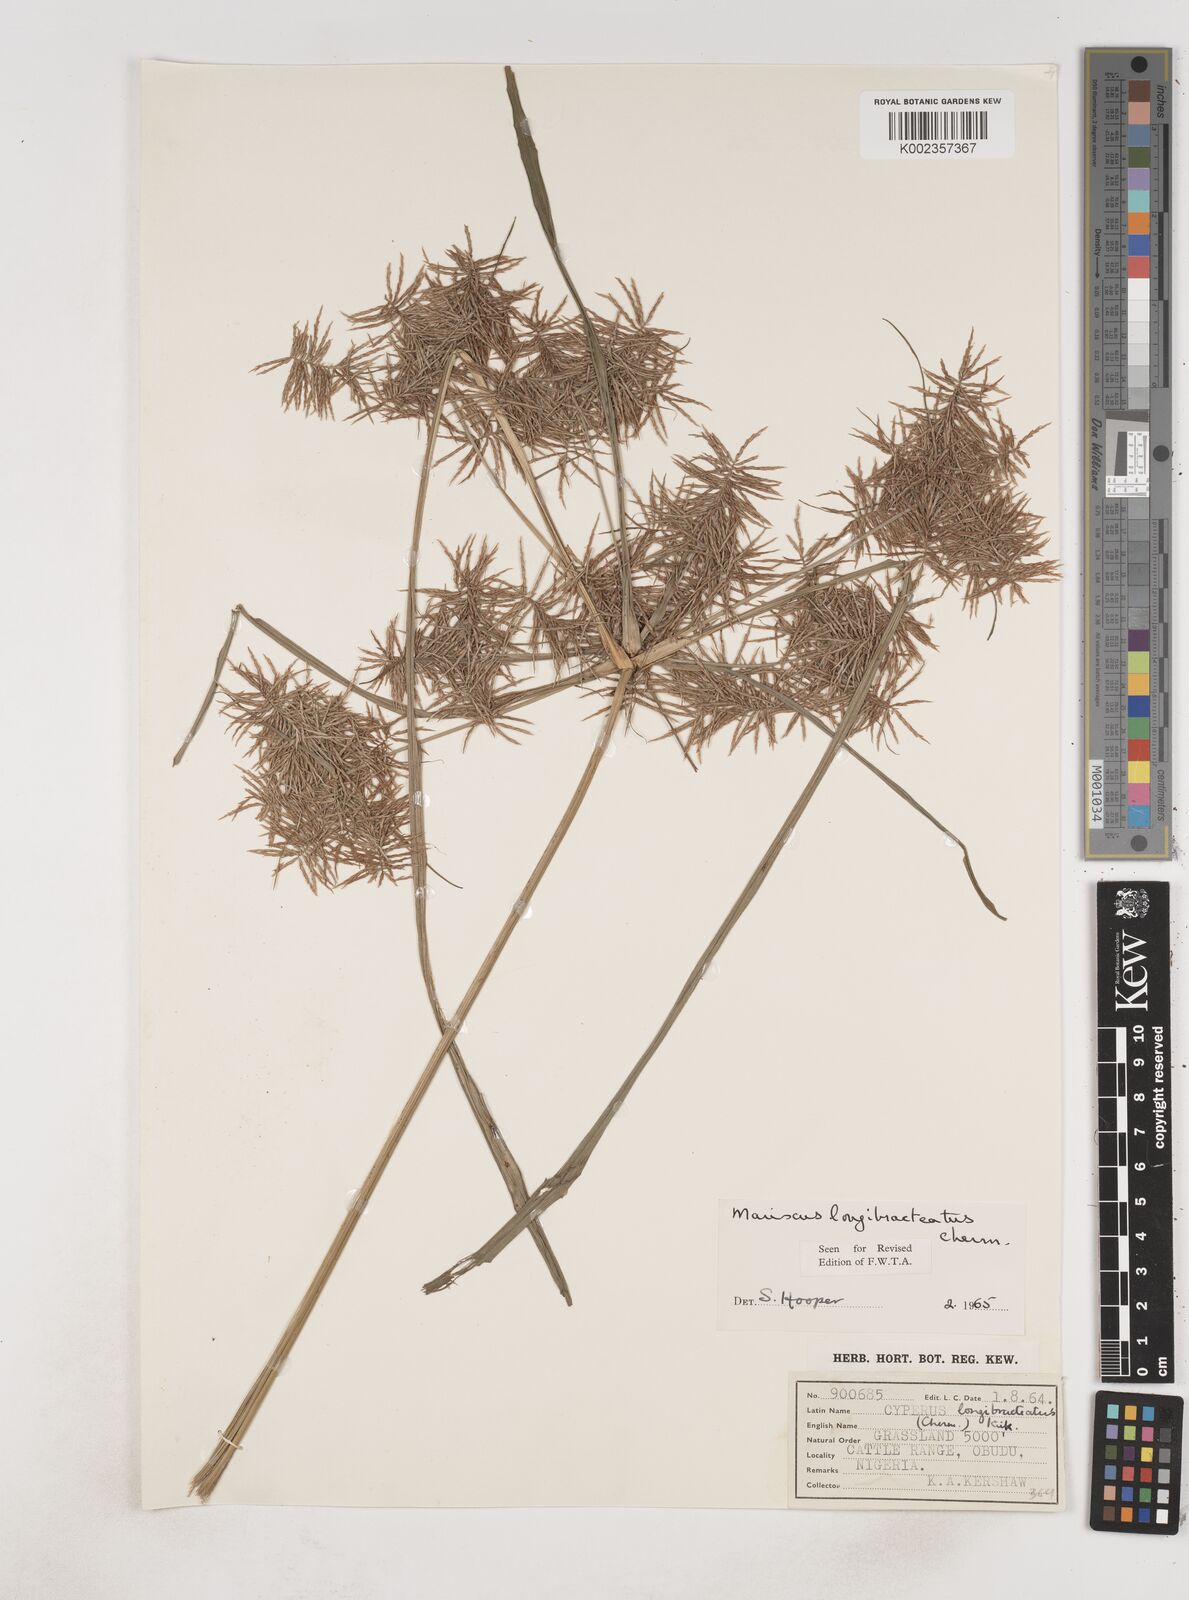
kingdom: Plantae
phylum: Tracheophyta
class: Liliopsida
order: Poales
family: Cyperaceae
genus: Cyperus
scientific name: Cyperus distans
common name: Slender cyperus
